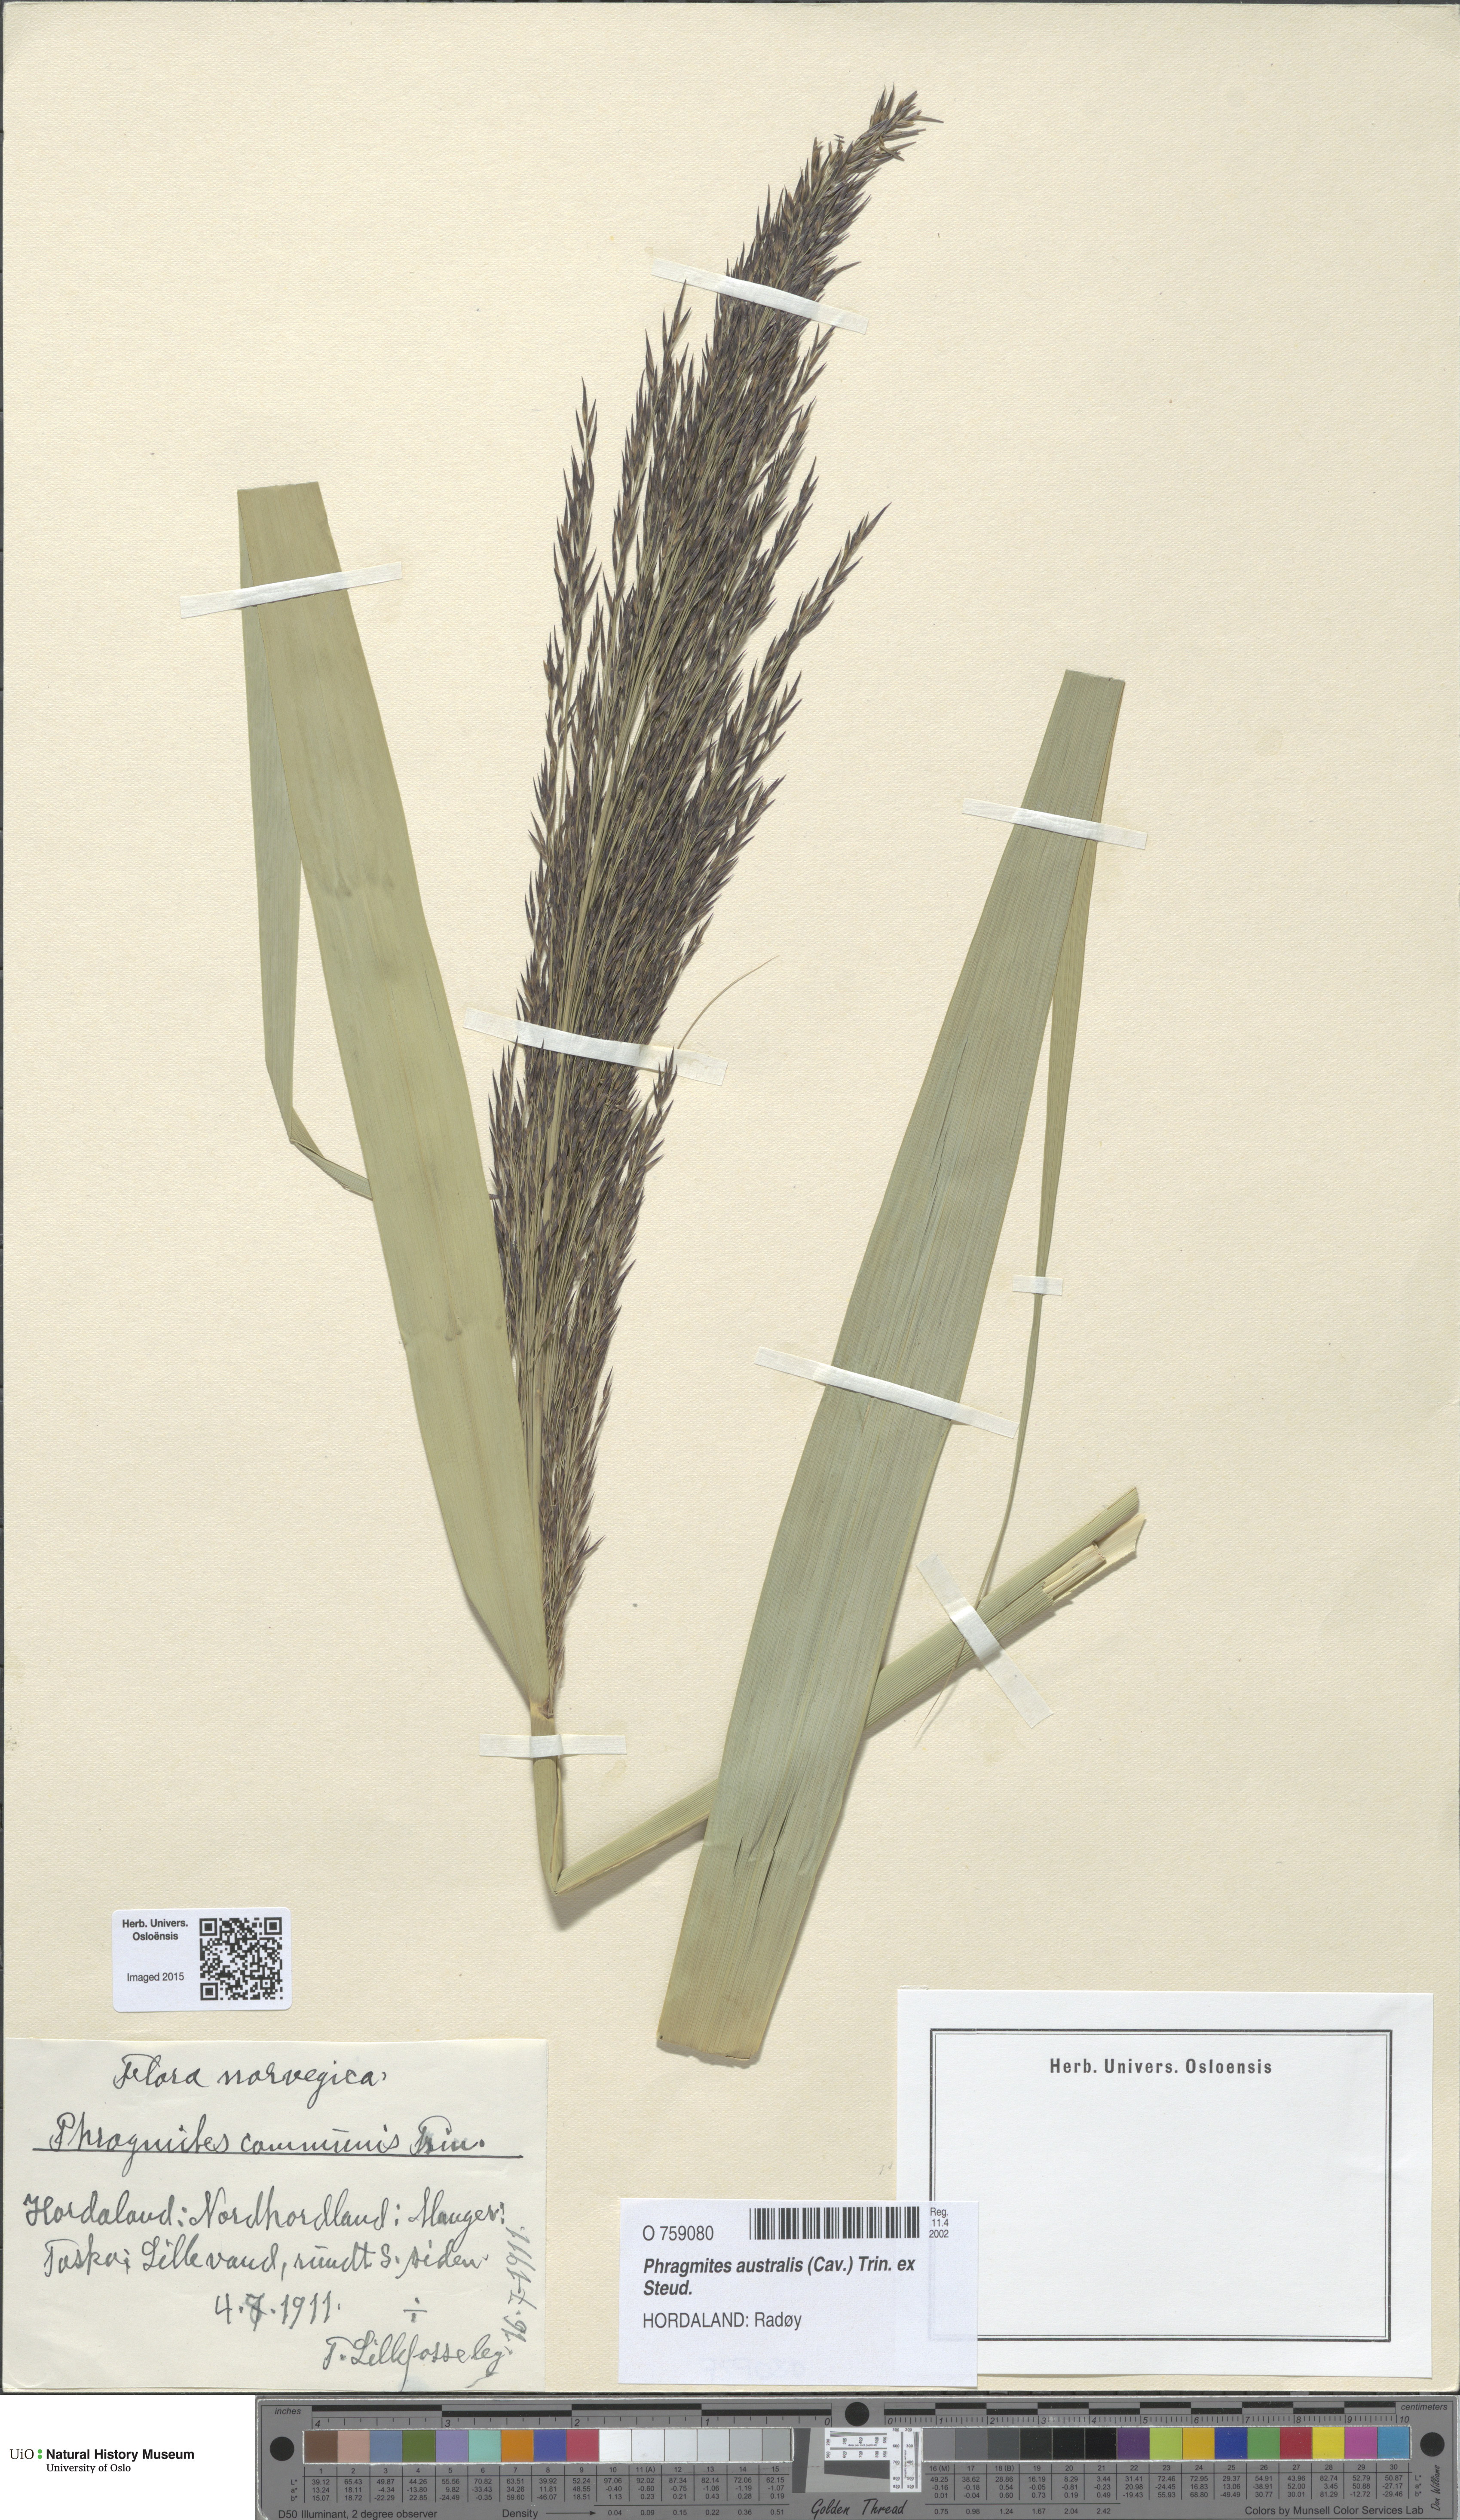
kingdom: Plantae
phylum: Tracheophyta
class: Liliopsida
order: Poales
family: Poaceae
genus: Phragmites
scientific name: Phragmites australis
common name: Common reed
